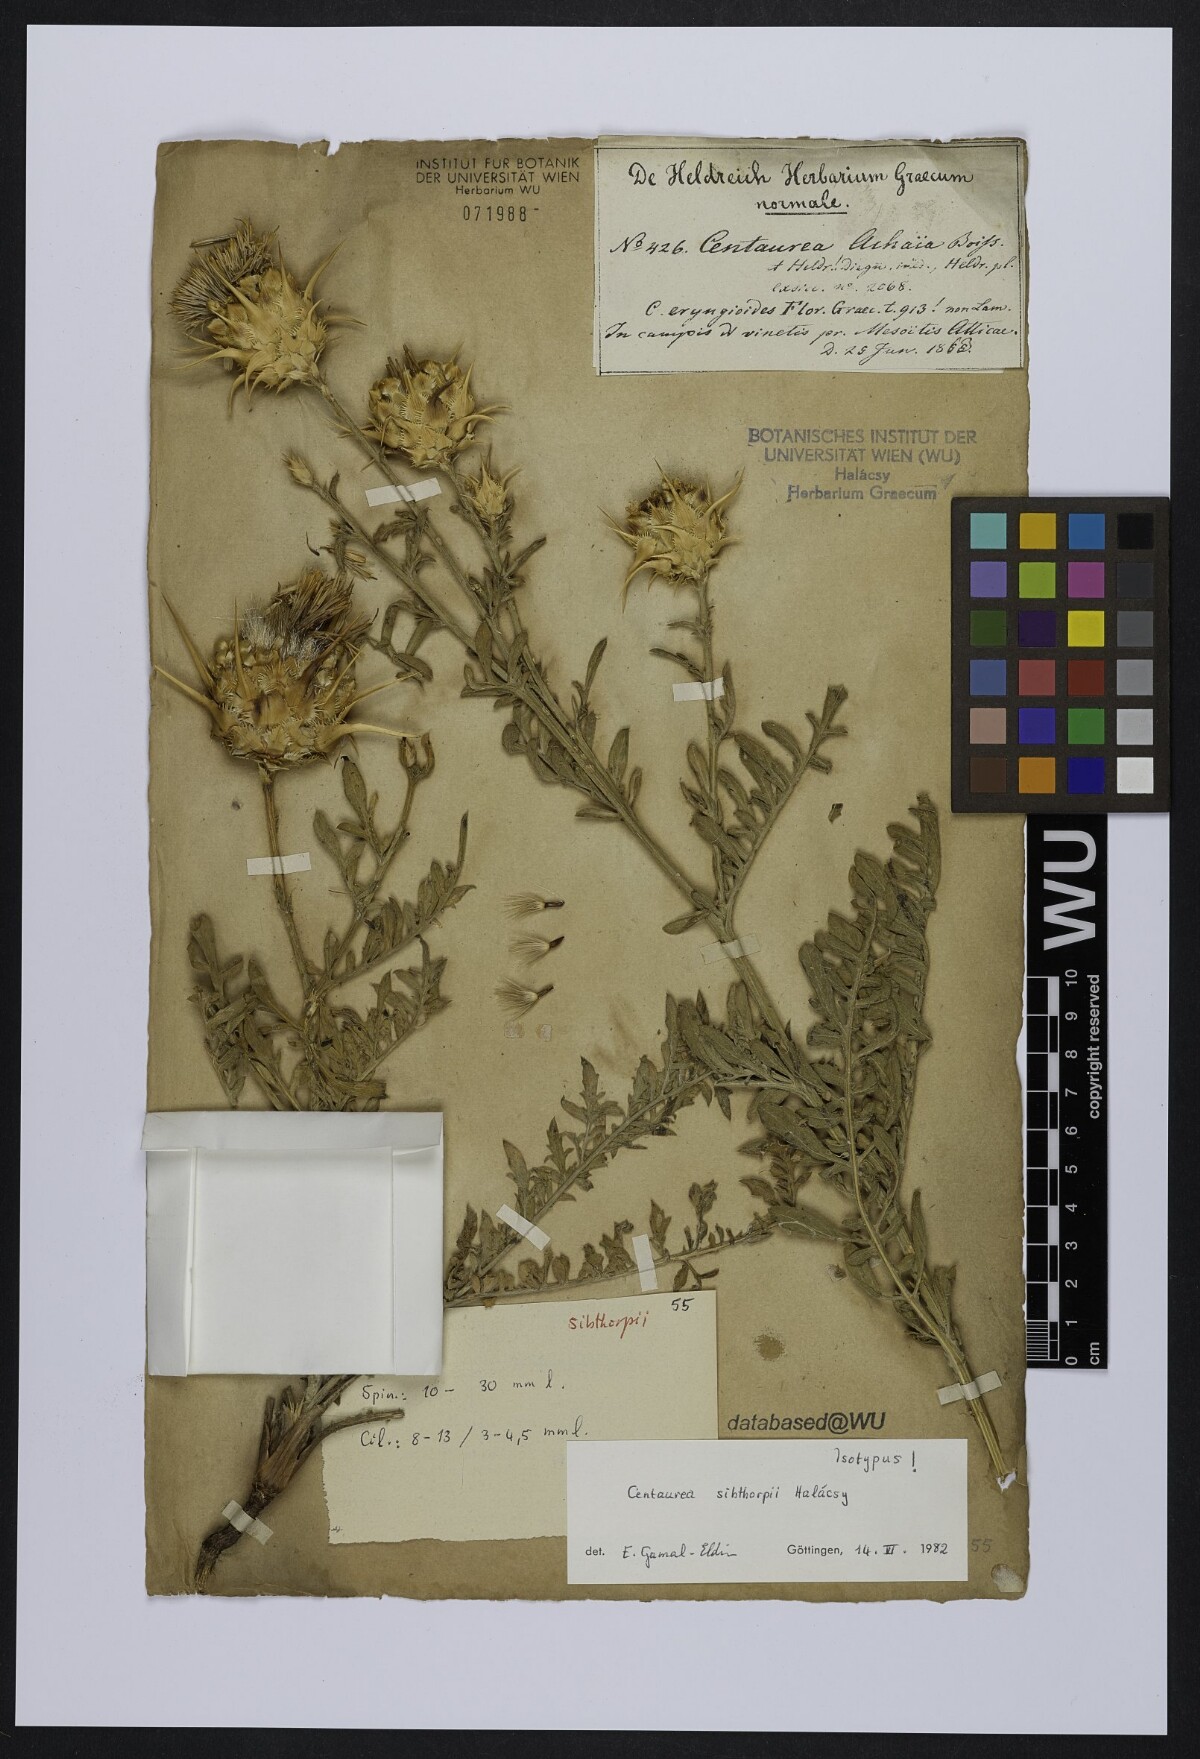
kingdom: Plantae
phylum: Tracheophyta
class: Magnoliopsida
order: Asterales
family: Asteraceae
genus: Centaurea
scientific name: Centaurea achaia
